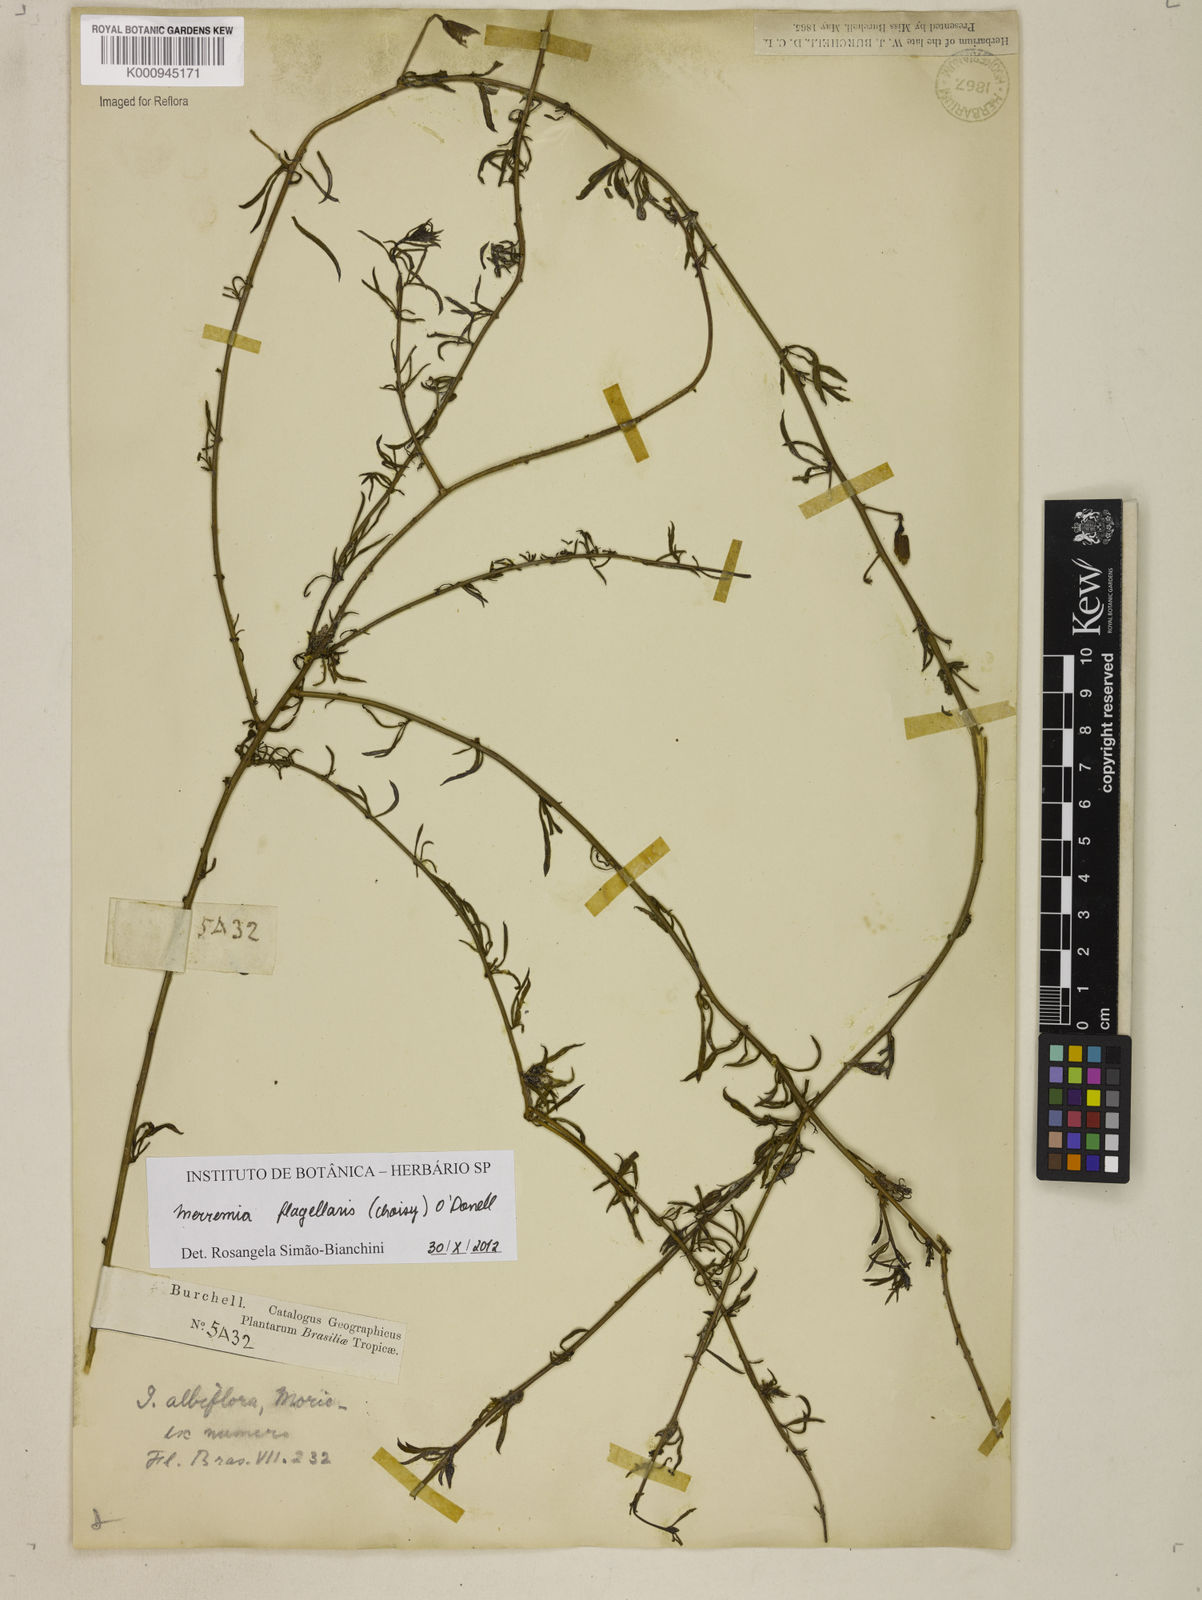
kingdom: Plantae
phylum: Tracheophyta
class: Magnoliopsida
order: Solanales
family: Convolvulaceae
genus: Distimake
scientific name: Distimake digitatus
